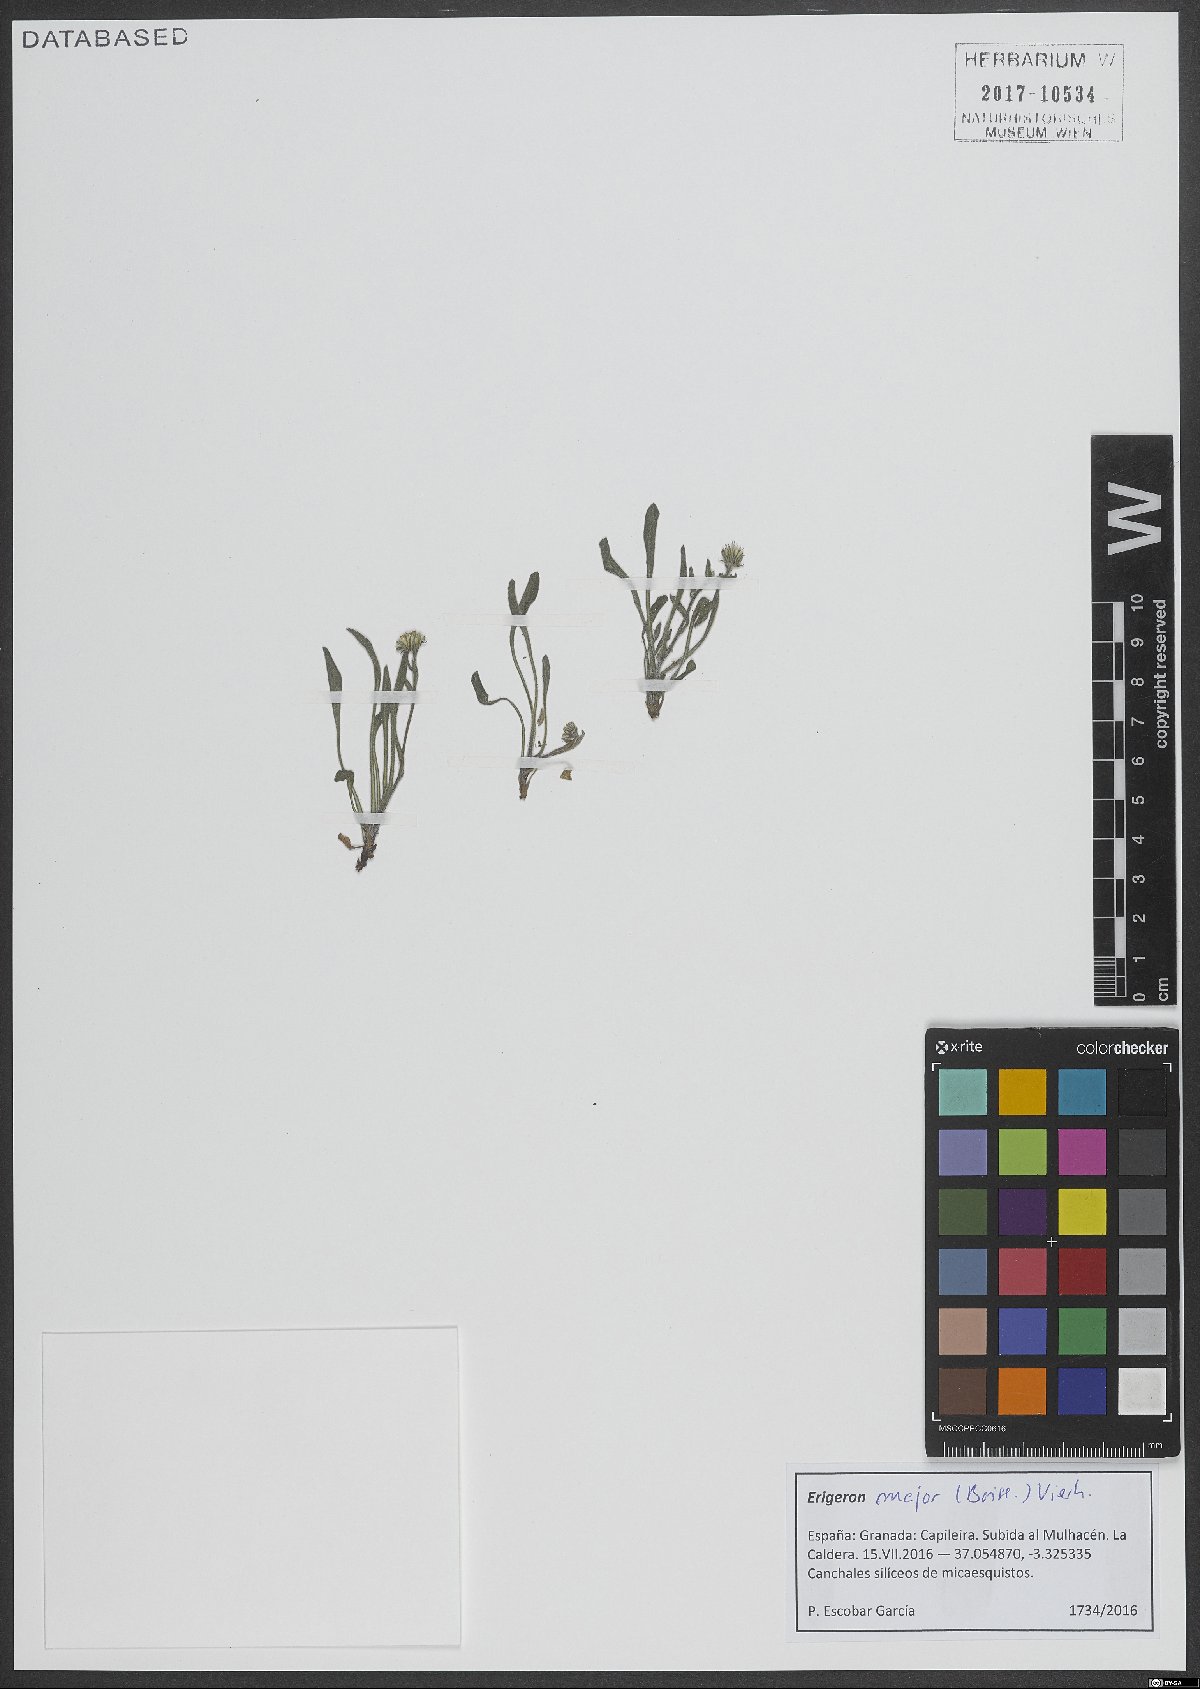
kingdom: Plantae
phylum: Tracheophyta
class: Magnoliopsida
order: Asterales
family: Asteraceae
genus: Erigeron
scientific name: Erigeron major
